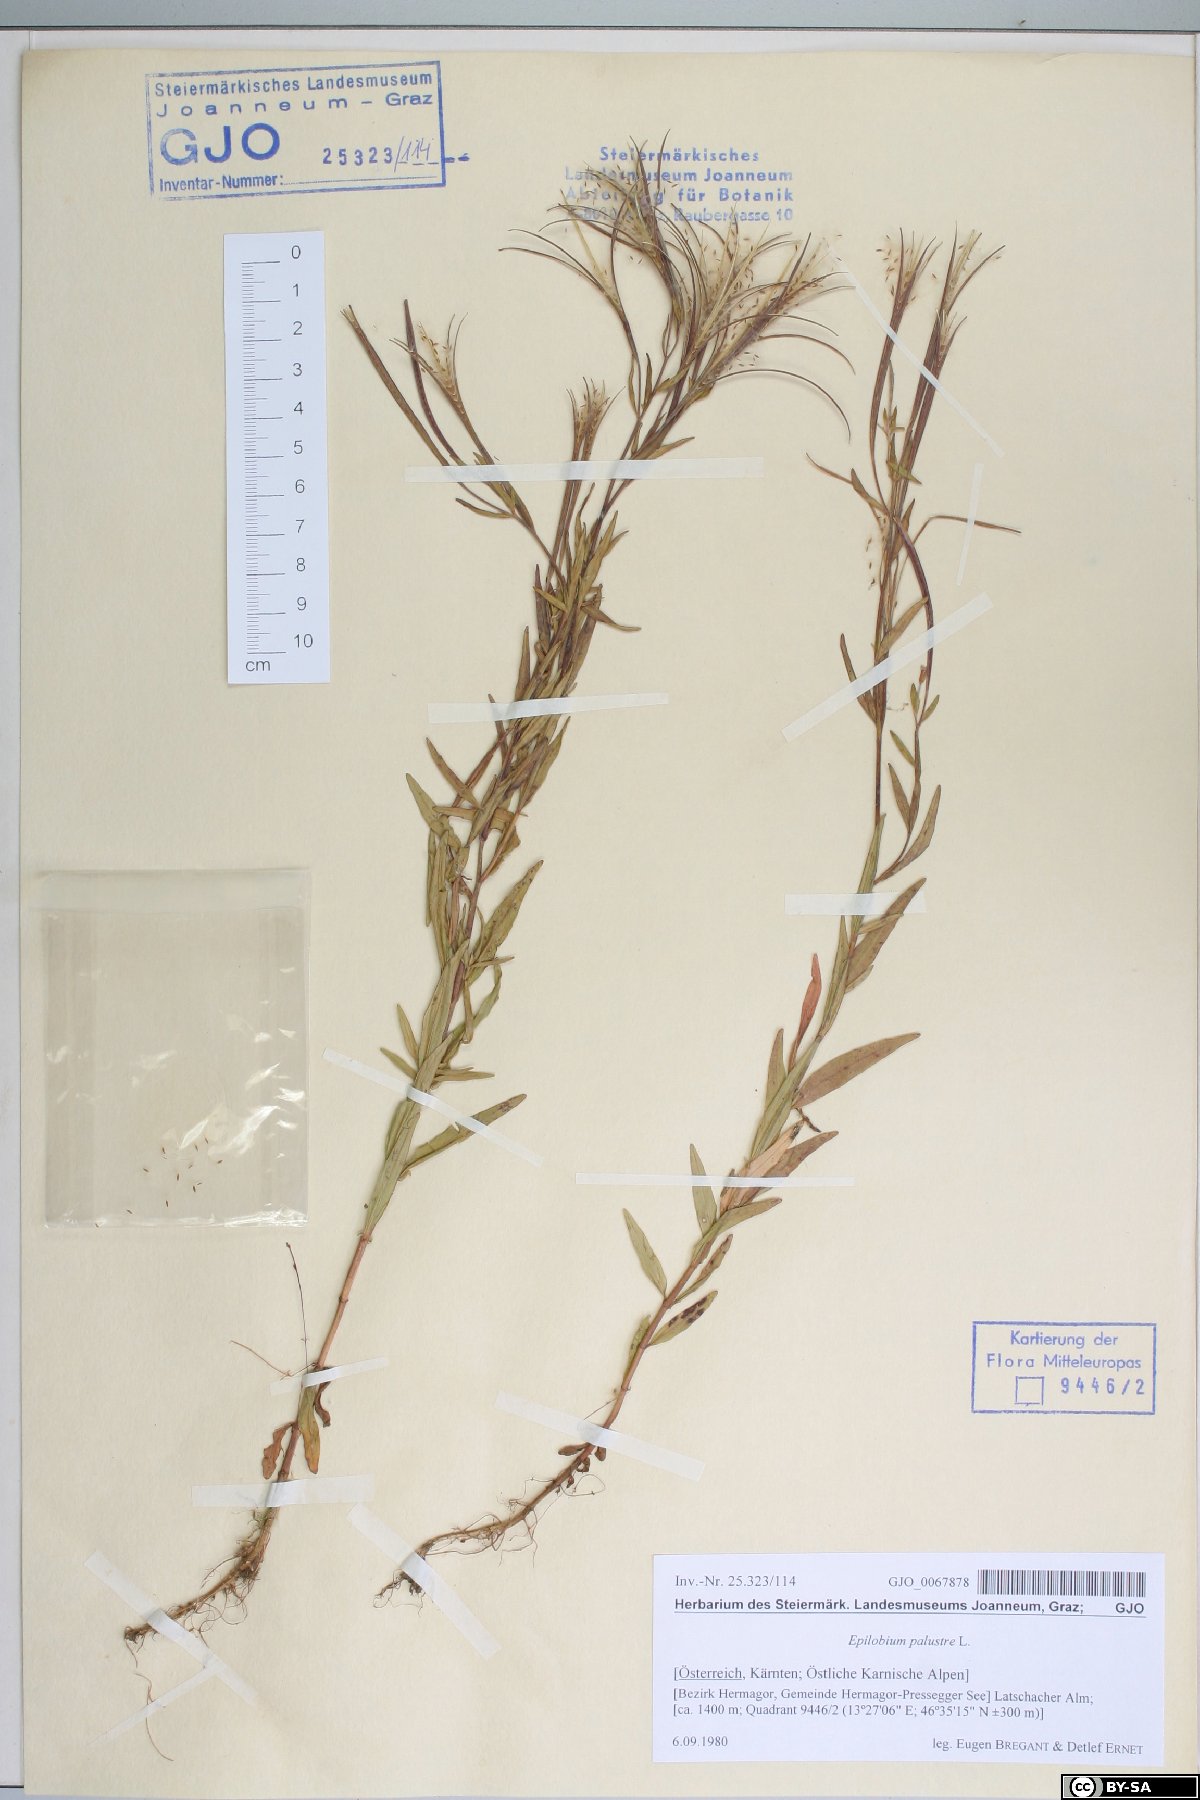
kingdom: Plantae
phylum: Tracheophyta
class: Magnoliopsida
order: Myrtales
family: Onagraceae
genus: Epilobium
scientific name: Epilobium palustre
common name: Marsh willowherb
